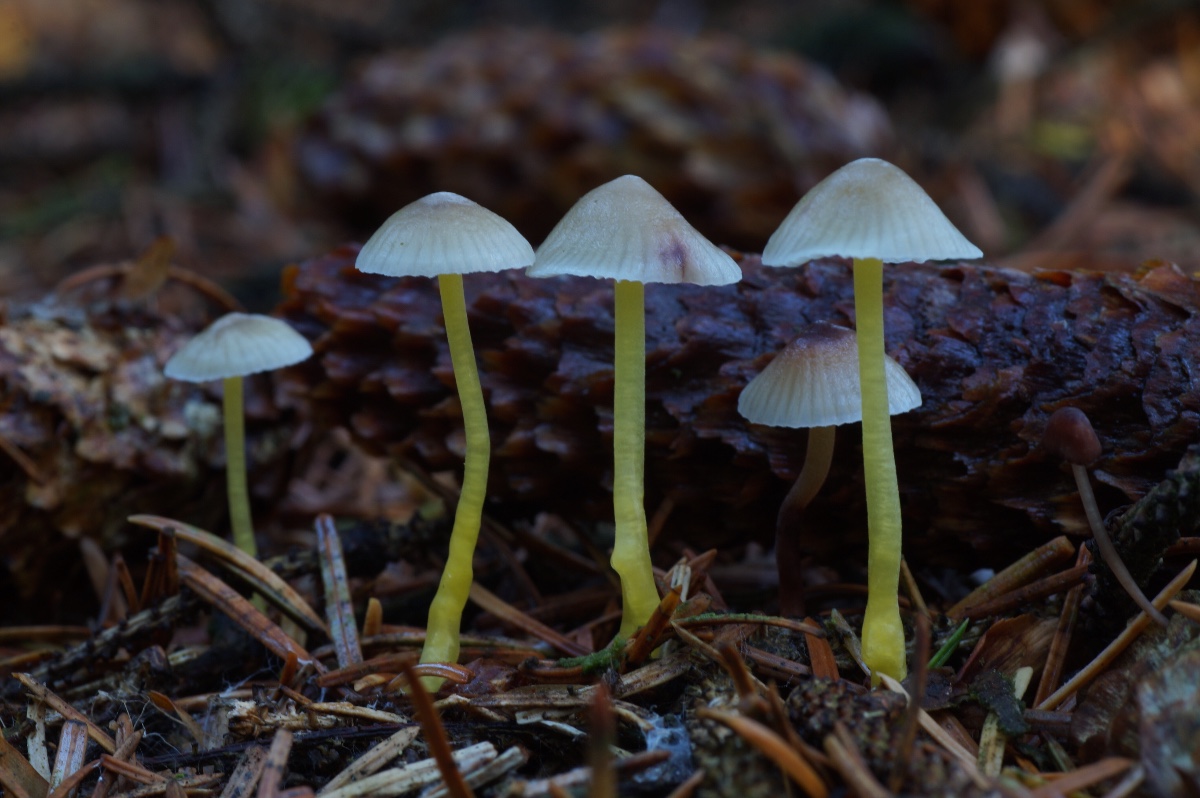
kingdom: Fungi
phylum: Basidiomycota
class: Agaricomycetes
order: Agaricales
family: Mycenaceae
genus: Mycena
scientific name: Mycena epipterygia
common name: gulstokket huesvamp
